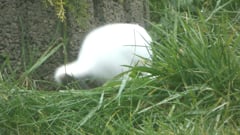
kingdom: Animalia
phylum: Chordata
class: Mammalia
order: Carnivora
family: Mustelidae
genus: Mustela
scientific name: Mustela erminea
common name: Stoat
